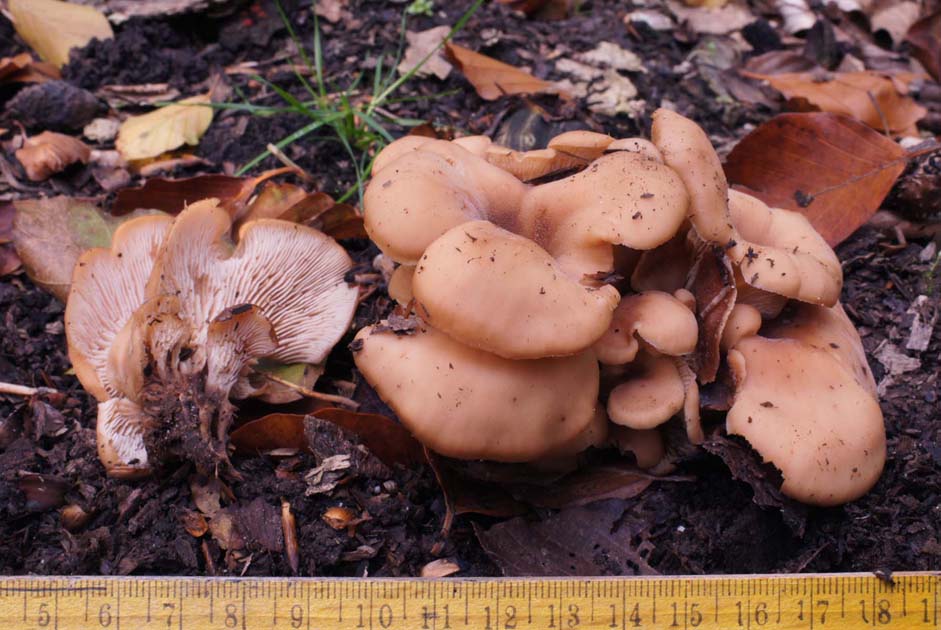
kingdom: Fungi
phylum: Basidiomycota
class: Agaricomycetes
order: Russulales
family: Auriscalpiaceae
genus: Lentinellus
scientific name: Lentinellus cochleatus
